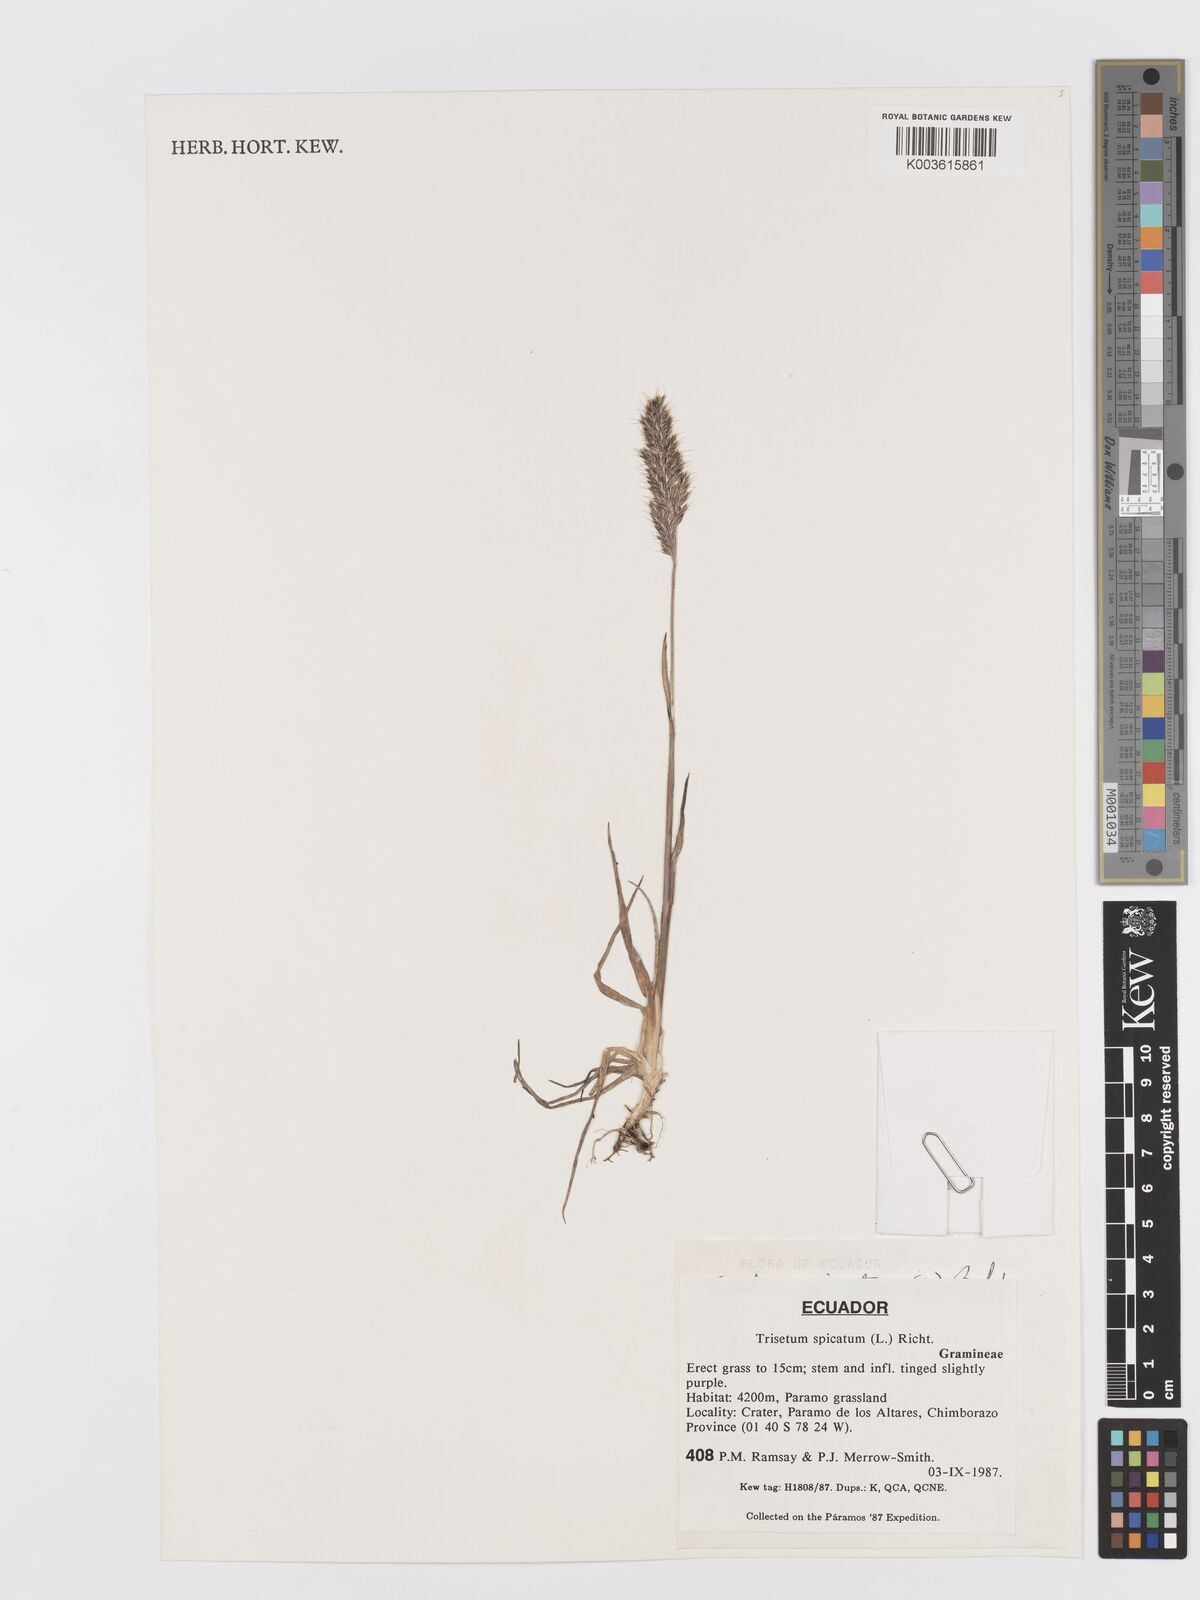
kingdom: Plantae
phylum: Tracheophyta
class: Liliopsida
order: Poales
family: Poaceae
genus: Koeleria
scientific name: Koeleria spicata
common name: Mountain trisetum
